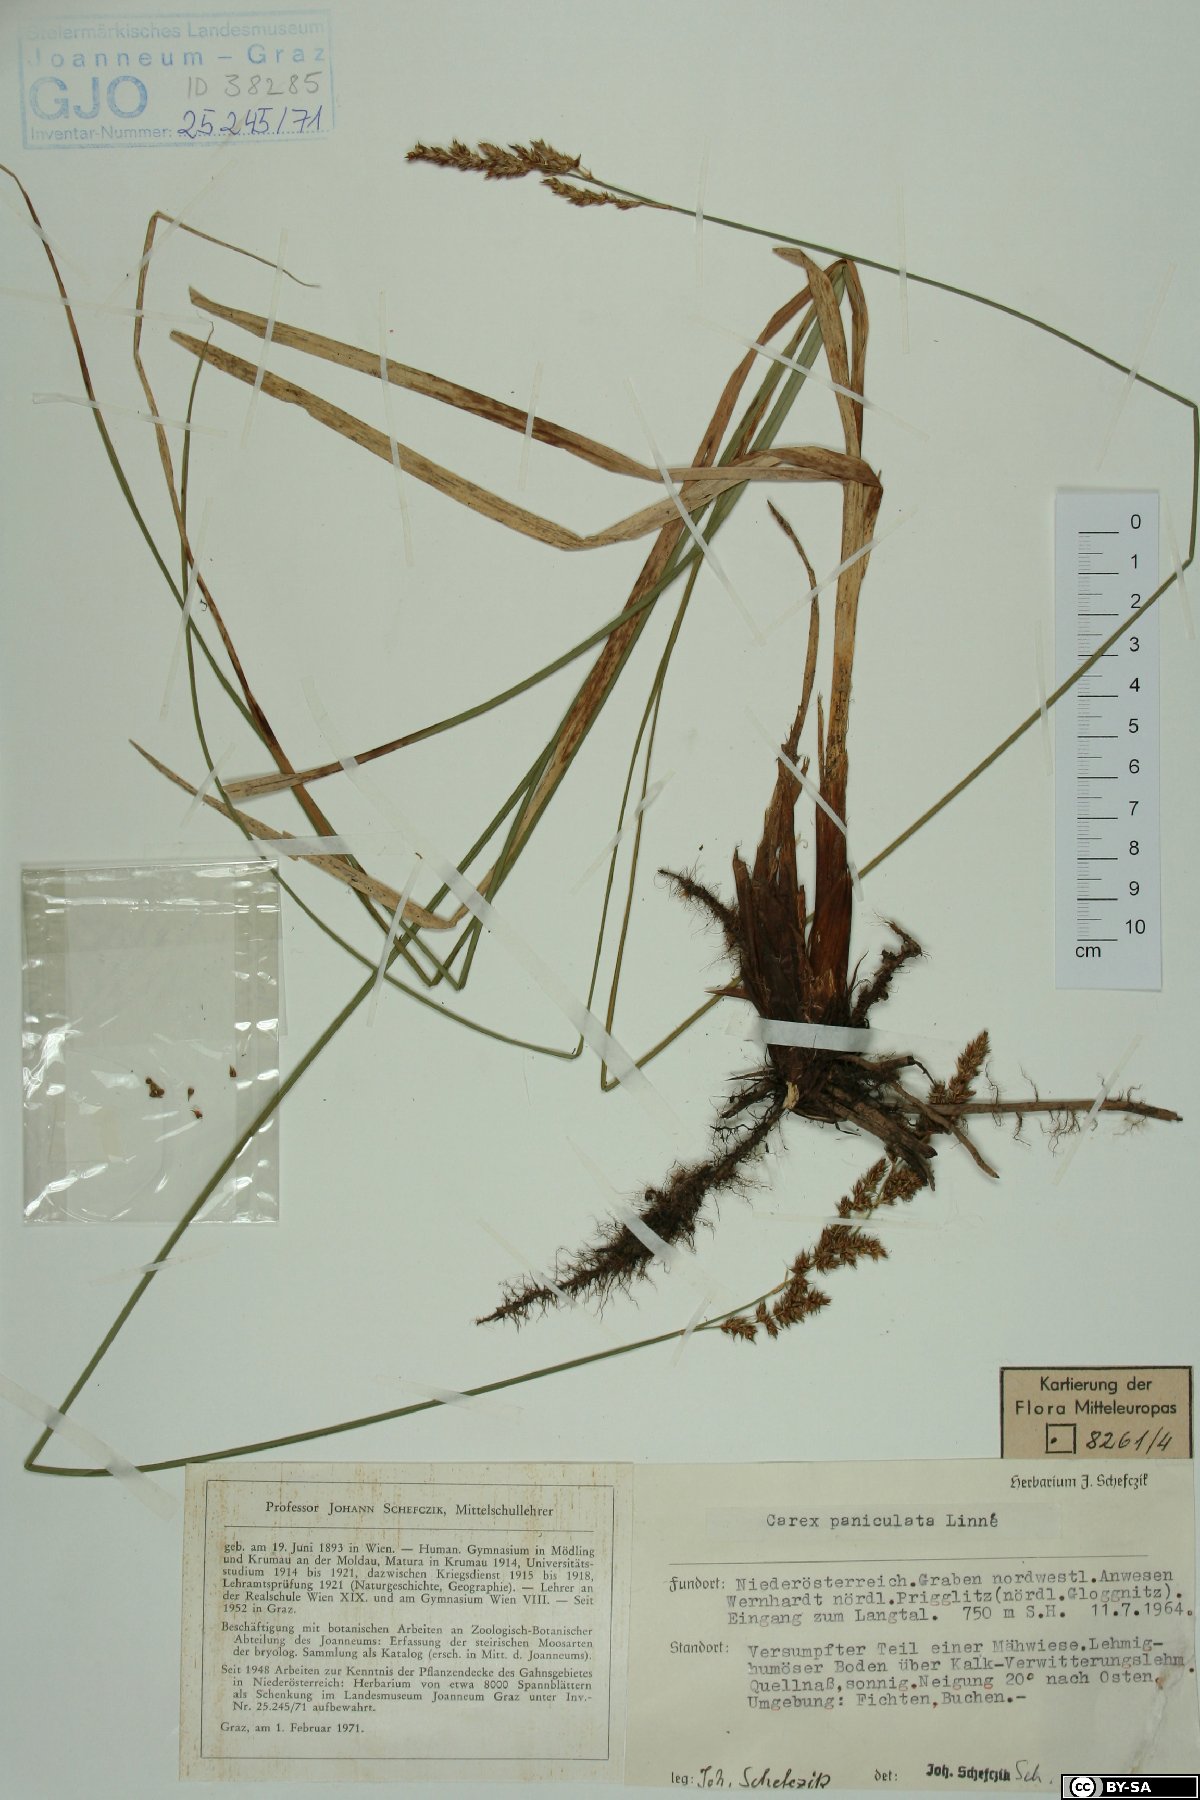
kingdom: Plantae
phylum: Tracheophyta
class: Liliopsida
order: Poales
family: Cyperaceae
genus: Carex
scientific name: Carex paniculata
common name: Greater tussock-sedge
